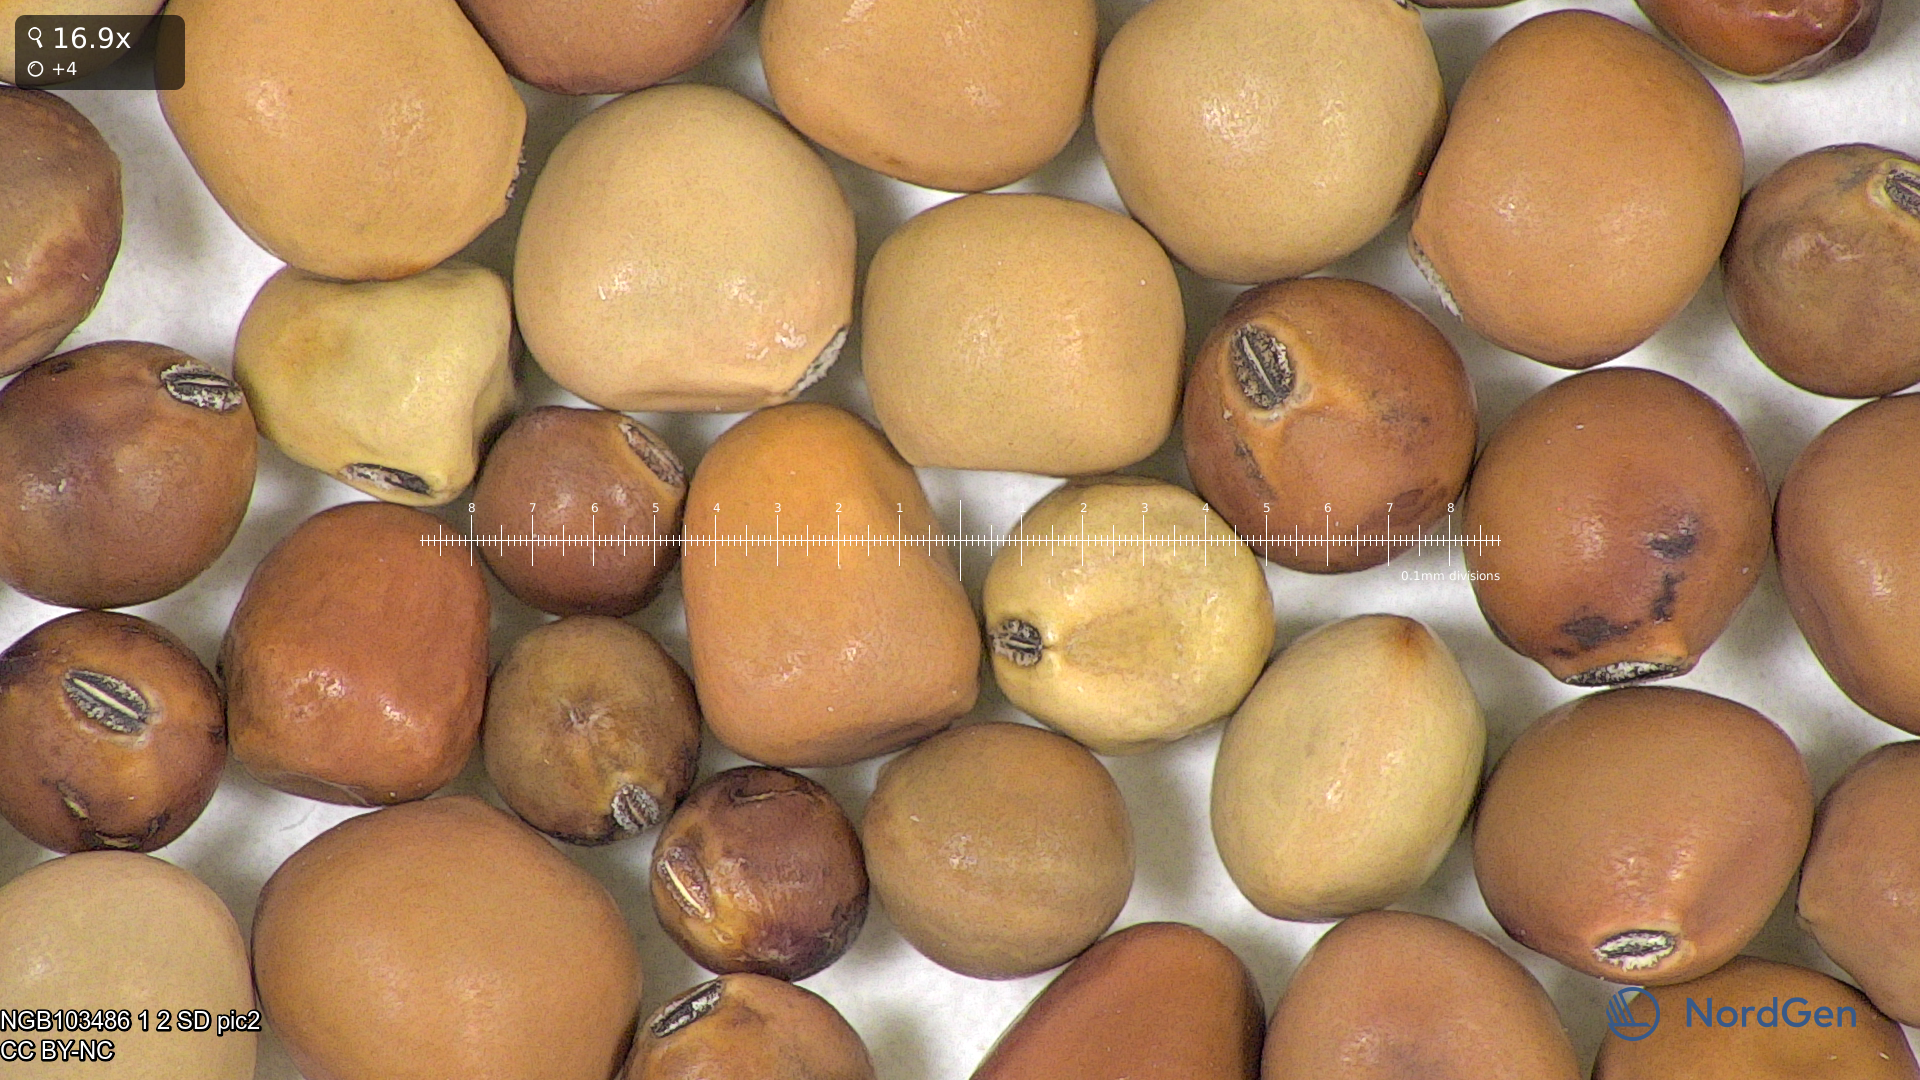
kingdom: Plantae
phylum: Tracheophyta
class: Magnoliopsida
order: Fabales
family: Fabaceae
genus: Lathyrus
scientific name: Lathyrus oleraceus
